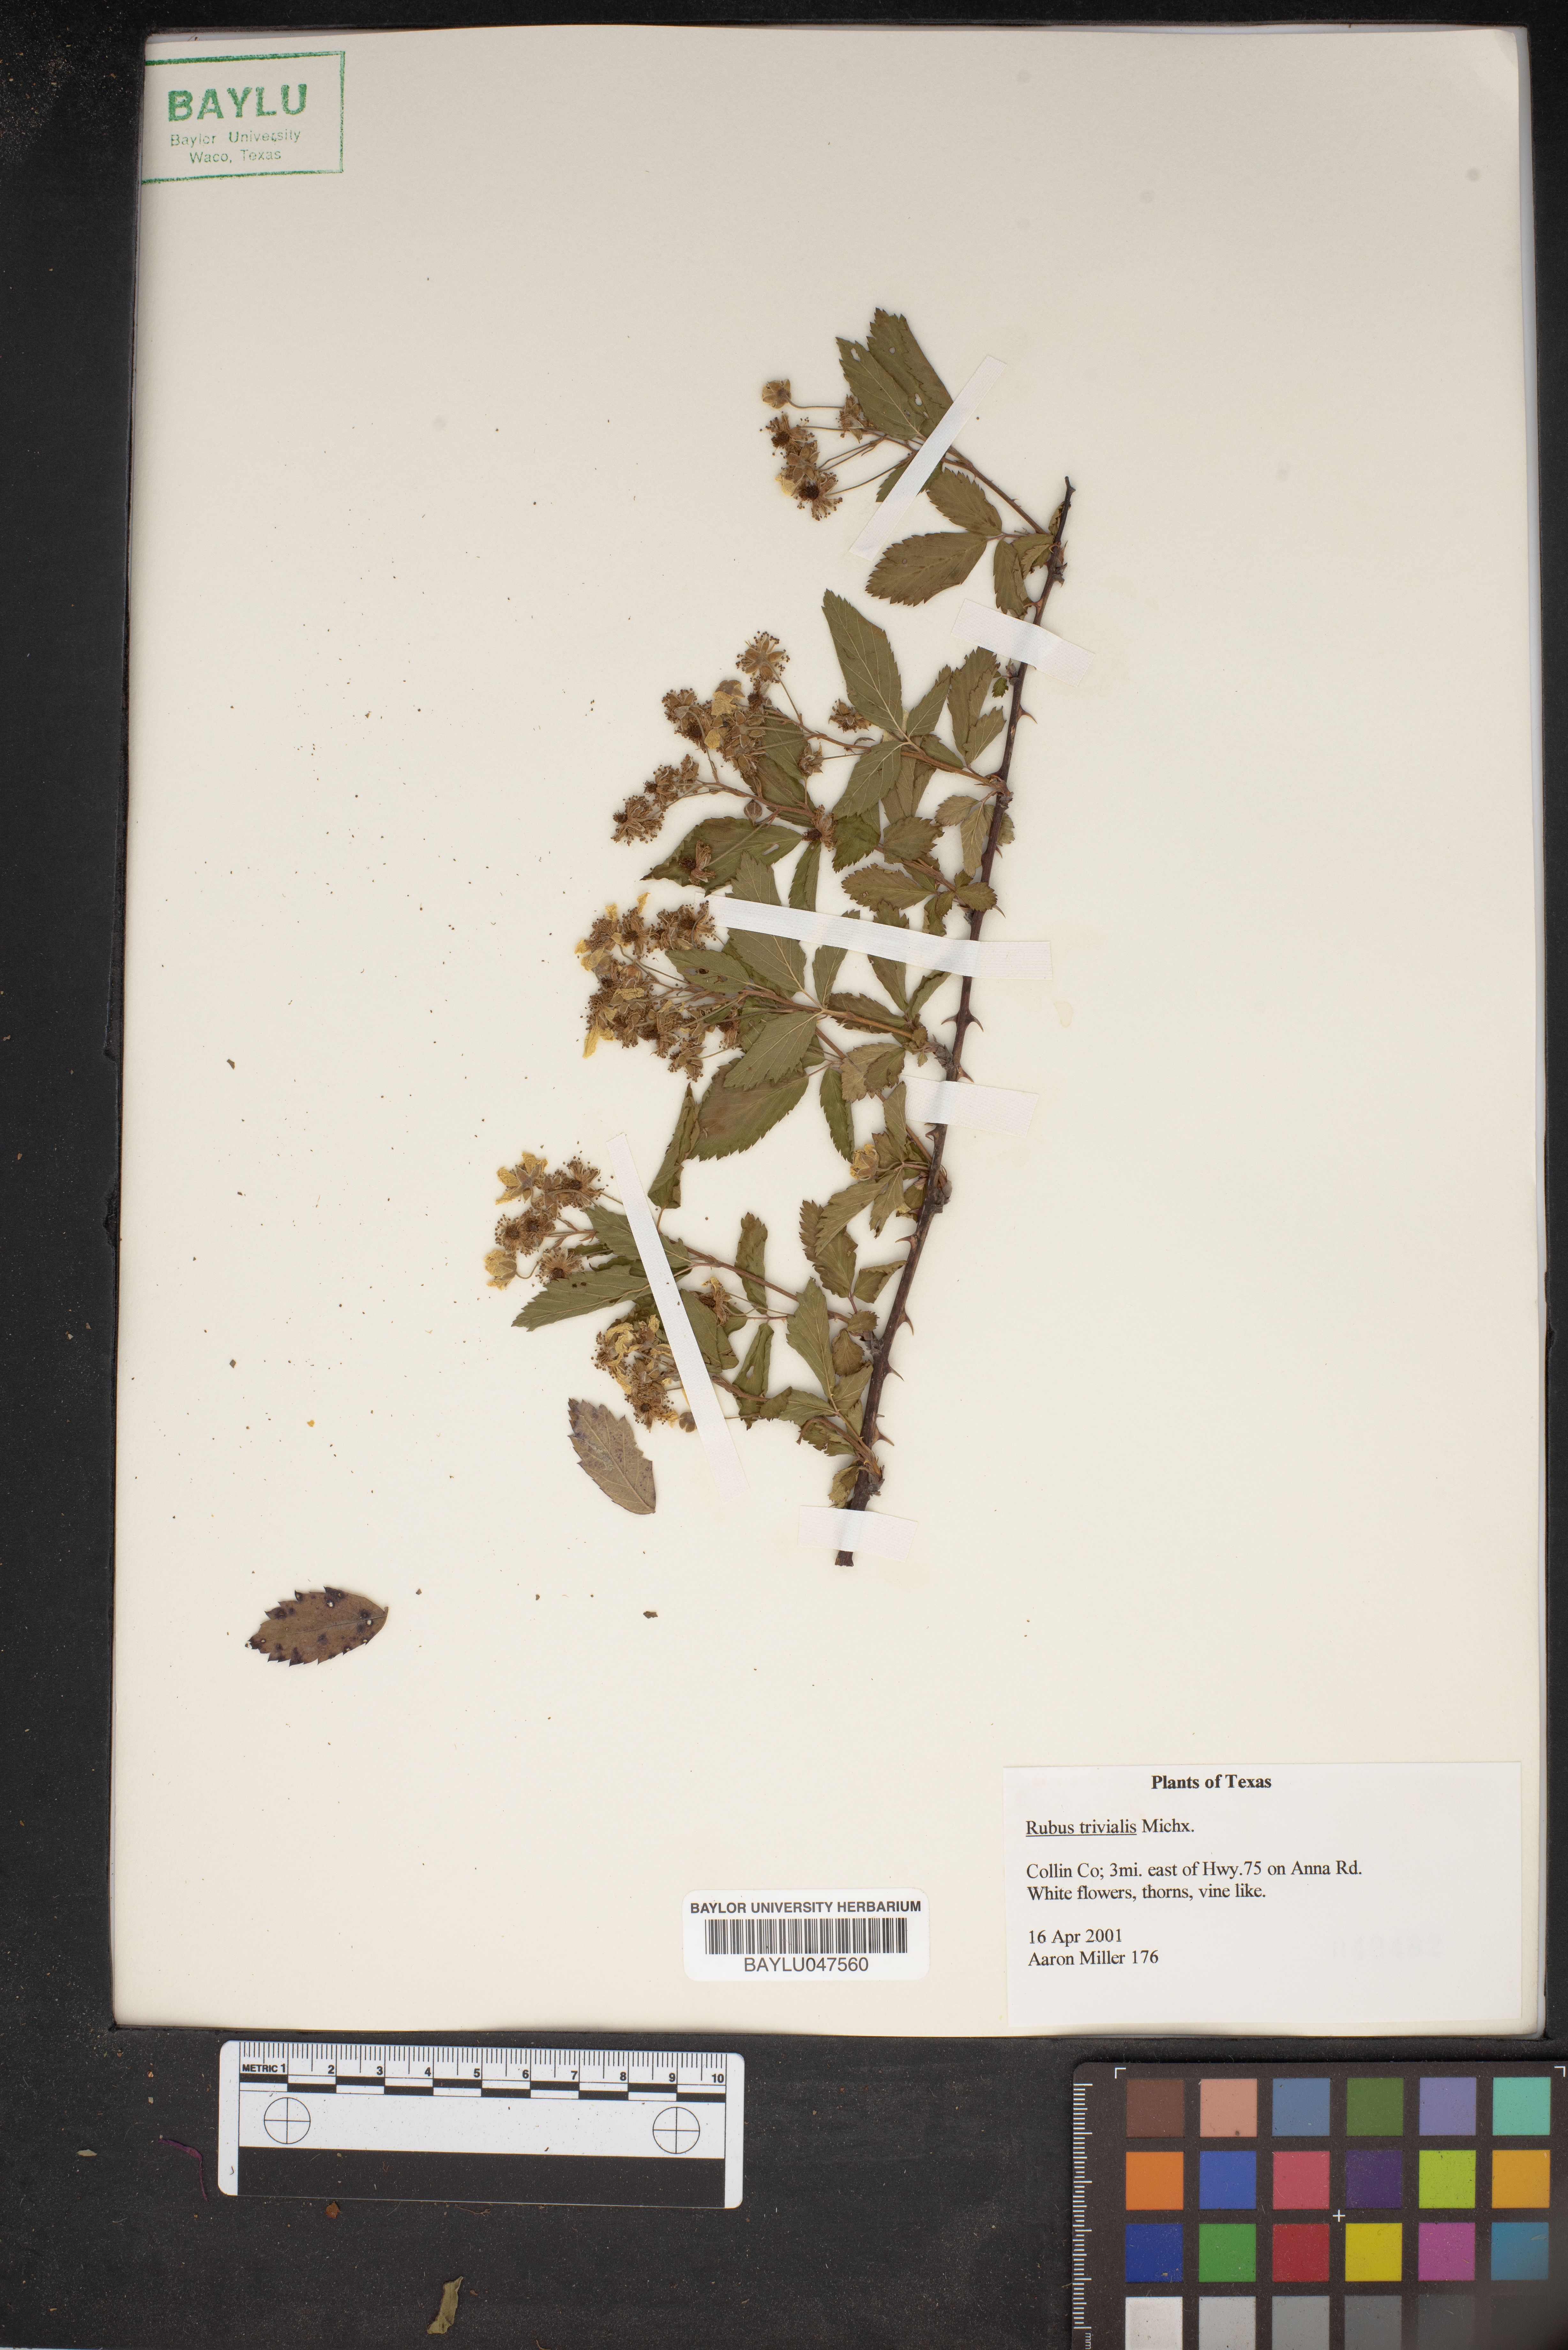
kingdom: Plantae
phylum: Tracheophyta
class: Magnoliopsida
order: Rosales
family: Rosaceae
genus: Rubus
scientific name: Rubus trivialis
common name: Southern dewberry
